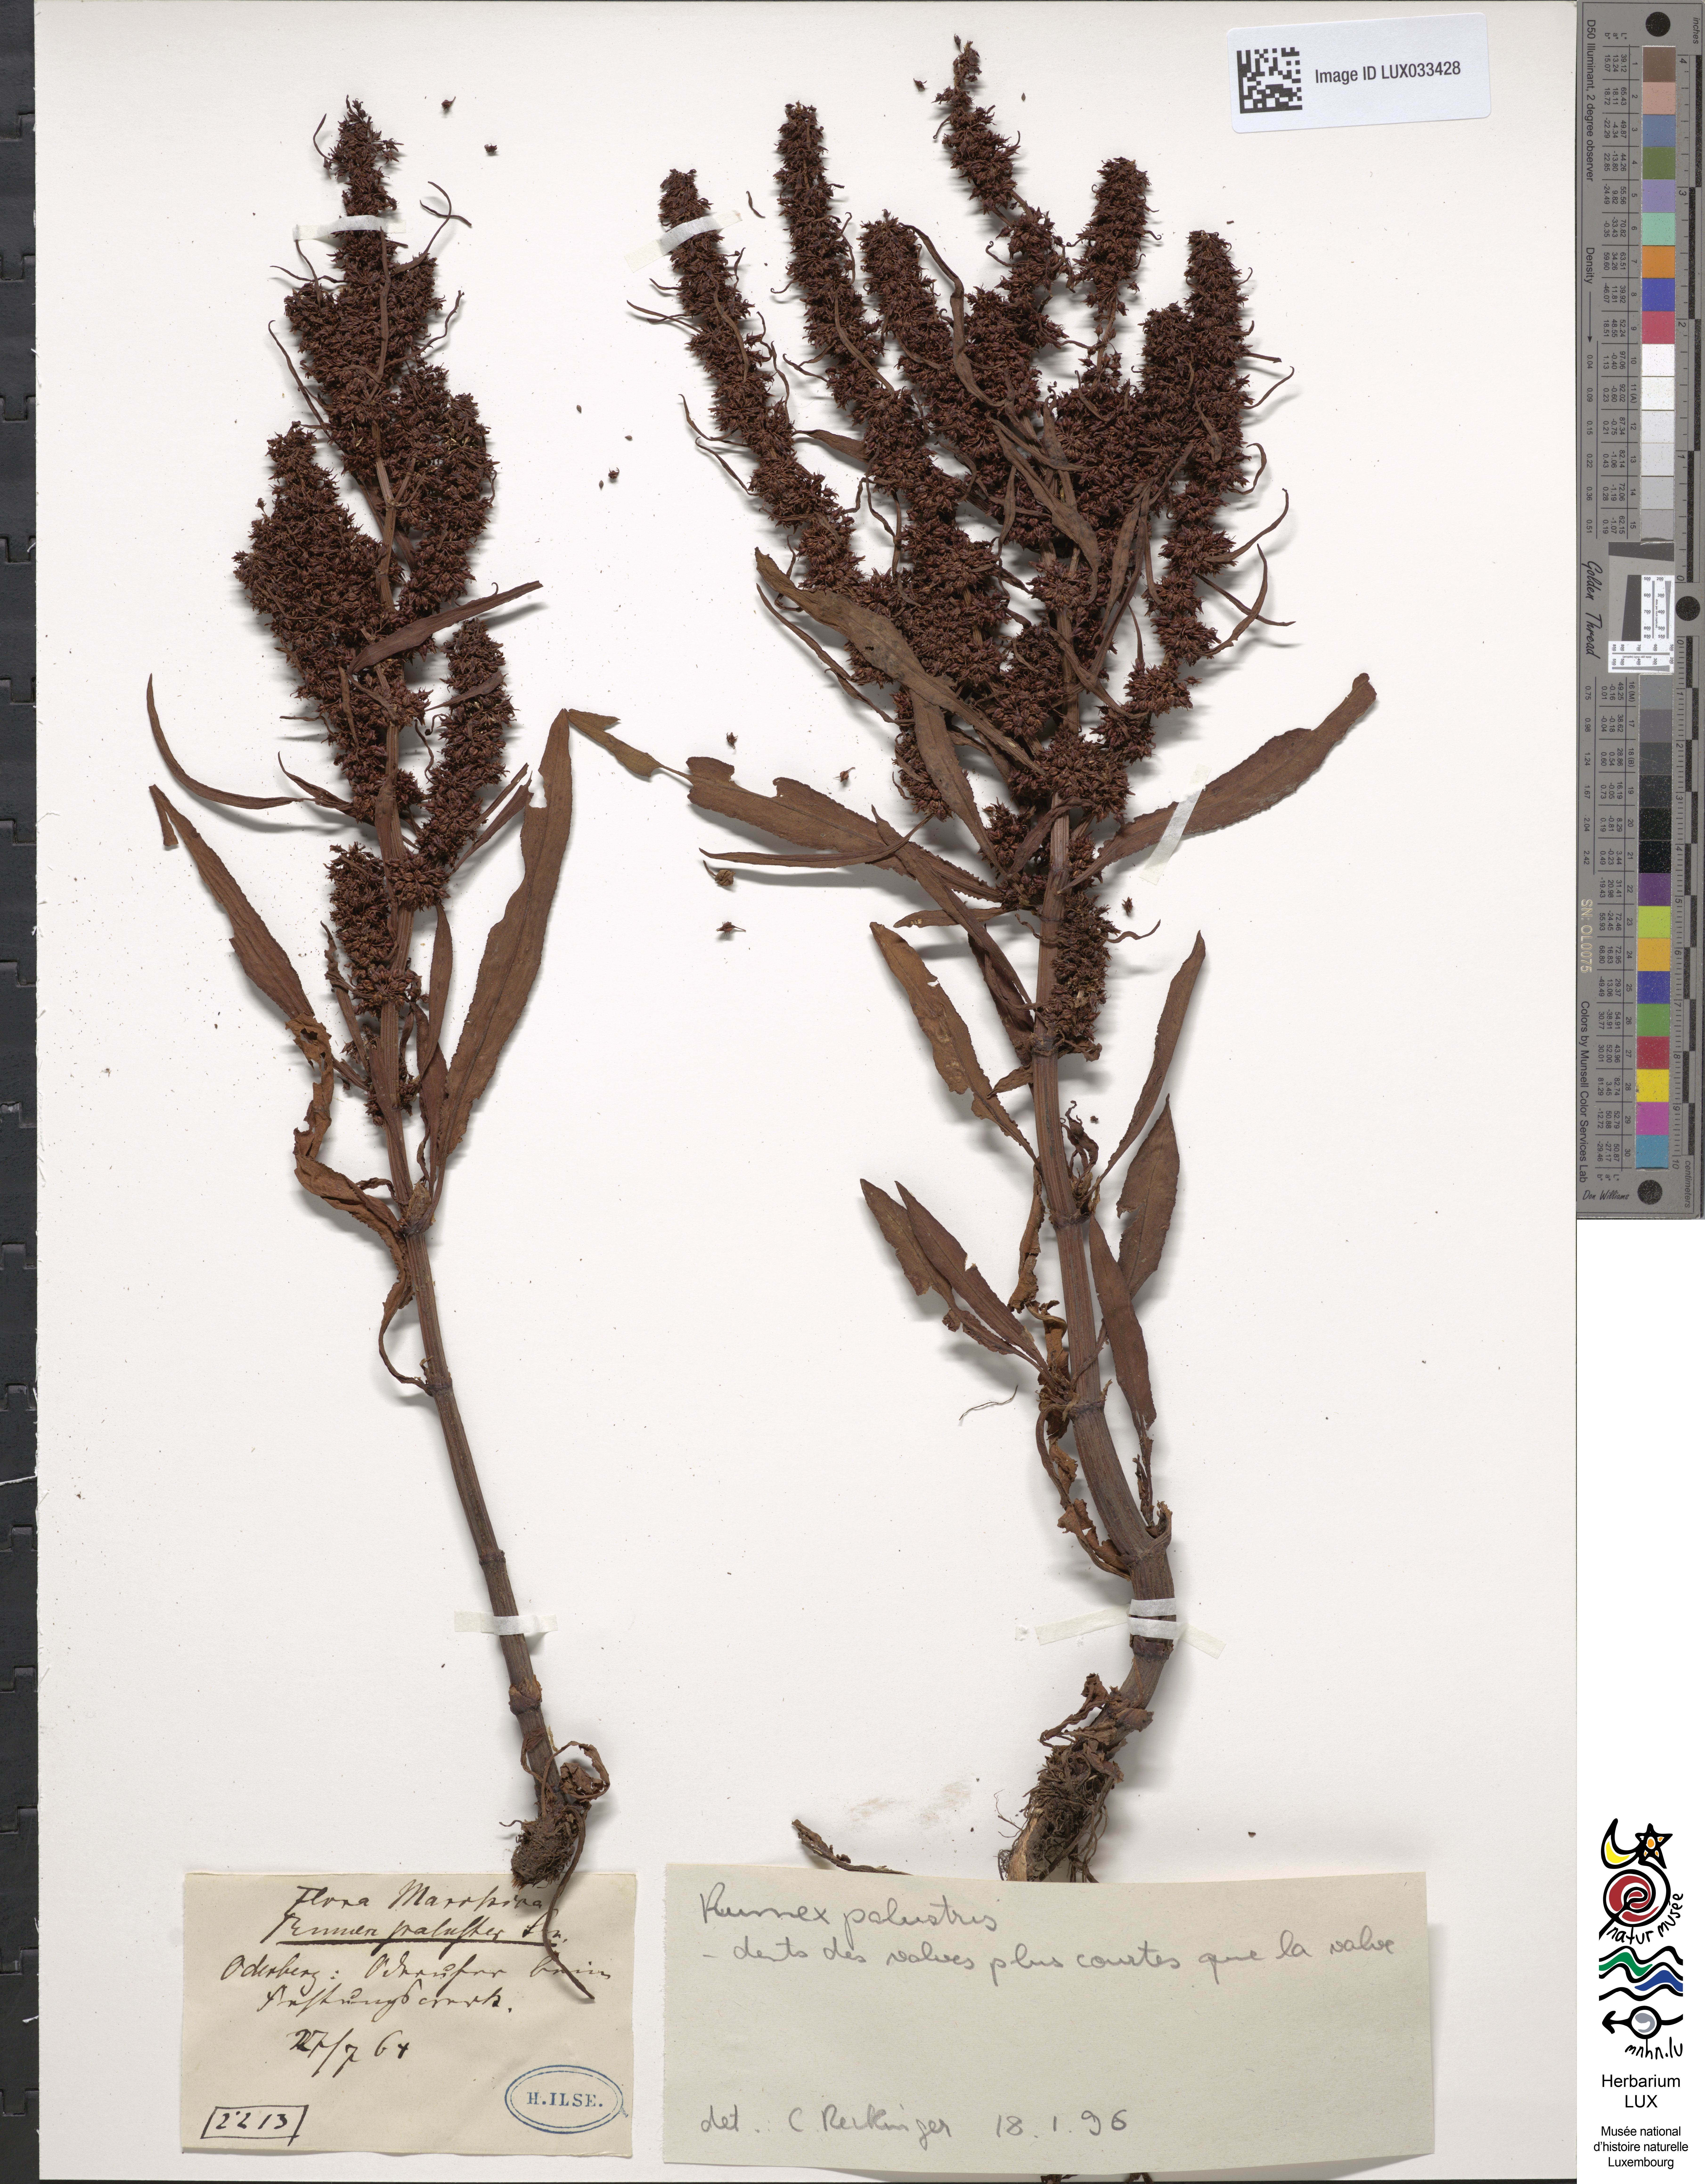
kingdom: Plantae
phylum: Tracheophyta
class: Magnoliopsida
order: Caryophyllales
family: Polygonaceae
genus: Rumex
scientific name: Rumex maritimus
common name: Golden dock
